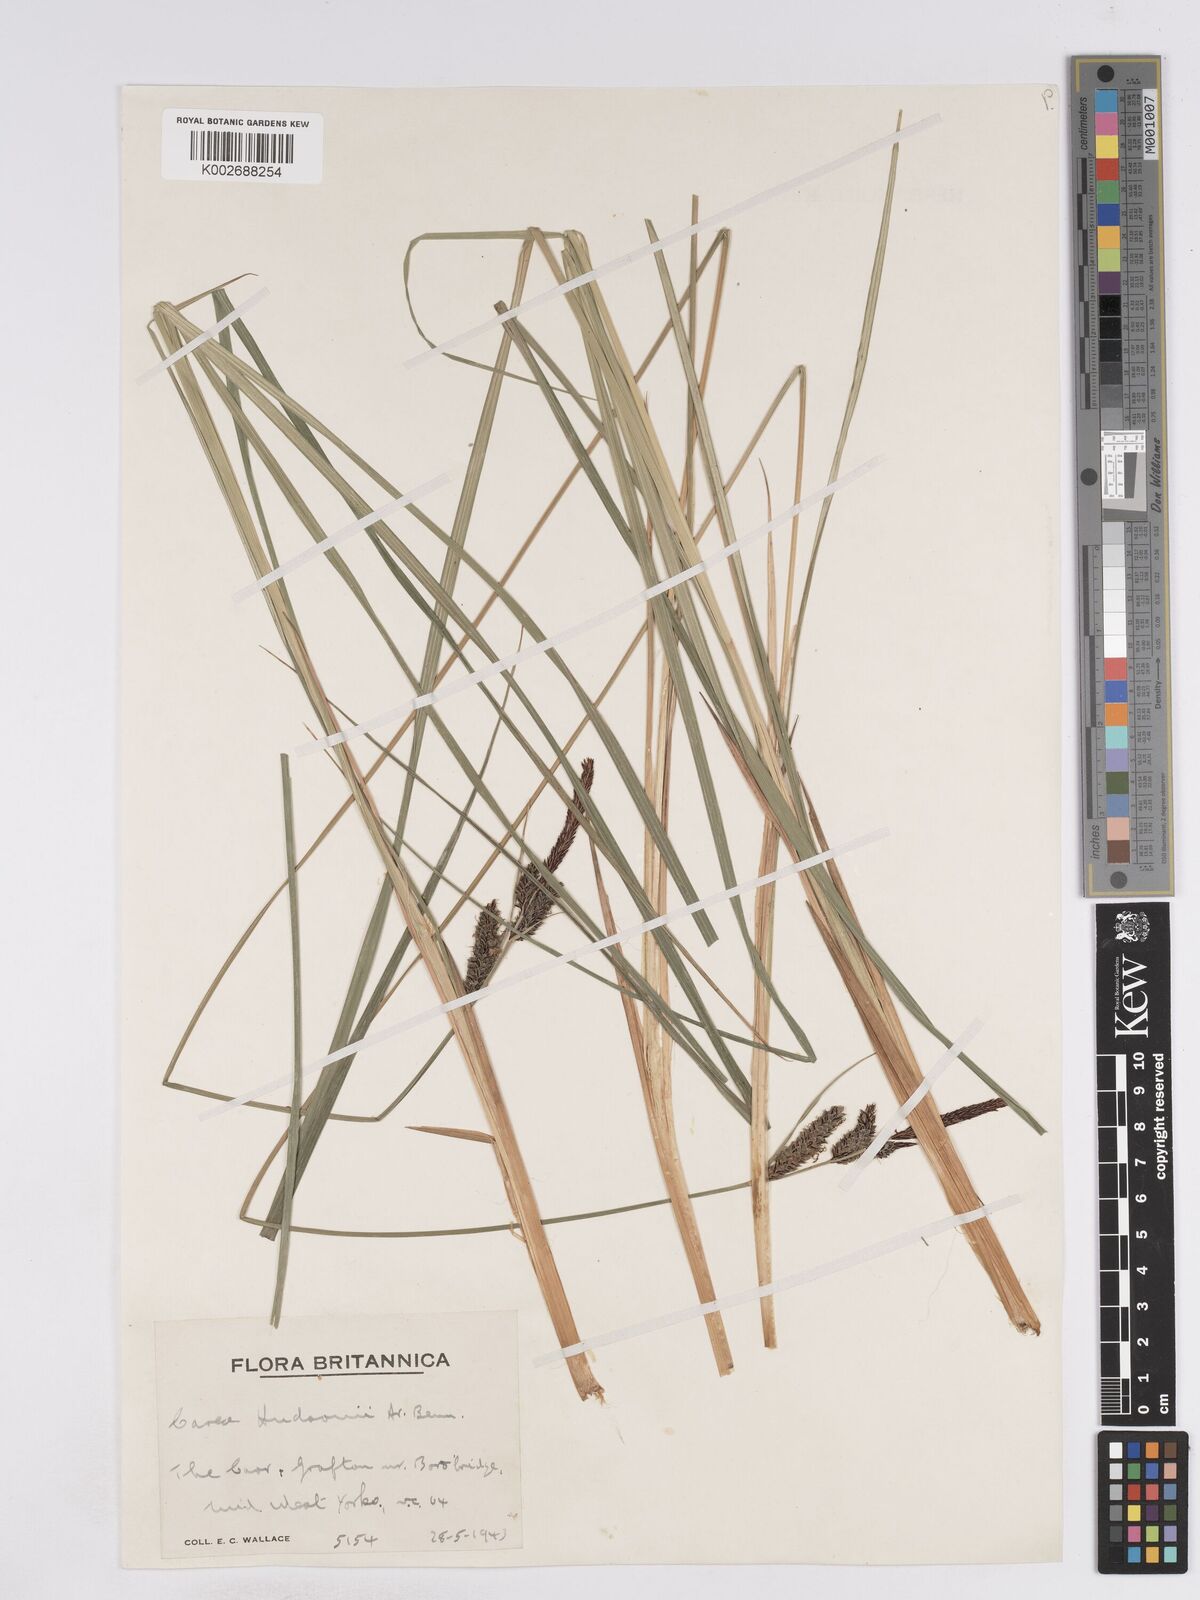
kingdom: Plantae
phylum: Tracheophyta
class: Liliopsida
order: Poales
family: Cyperaceae
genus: Carex
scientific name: Carex elata
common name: Tufted sedge
